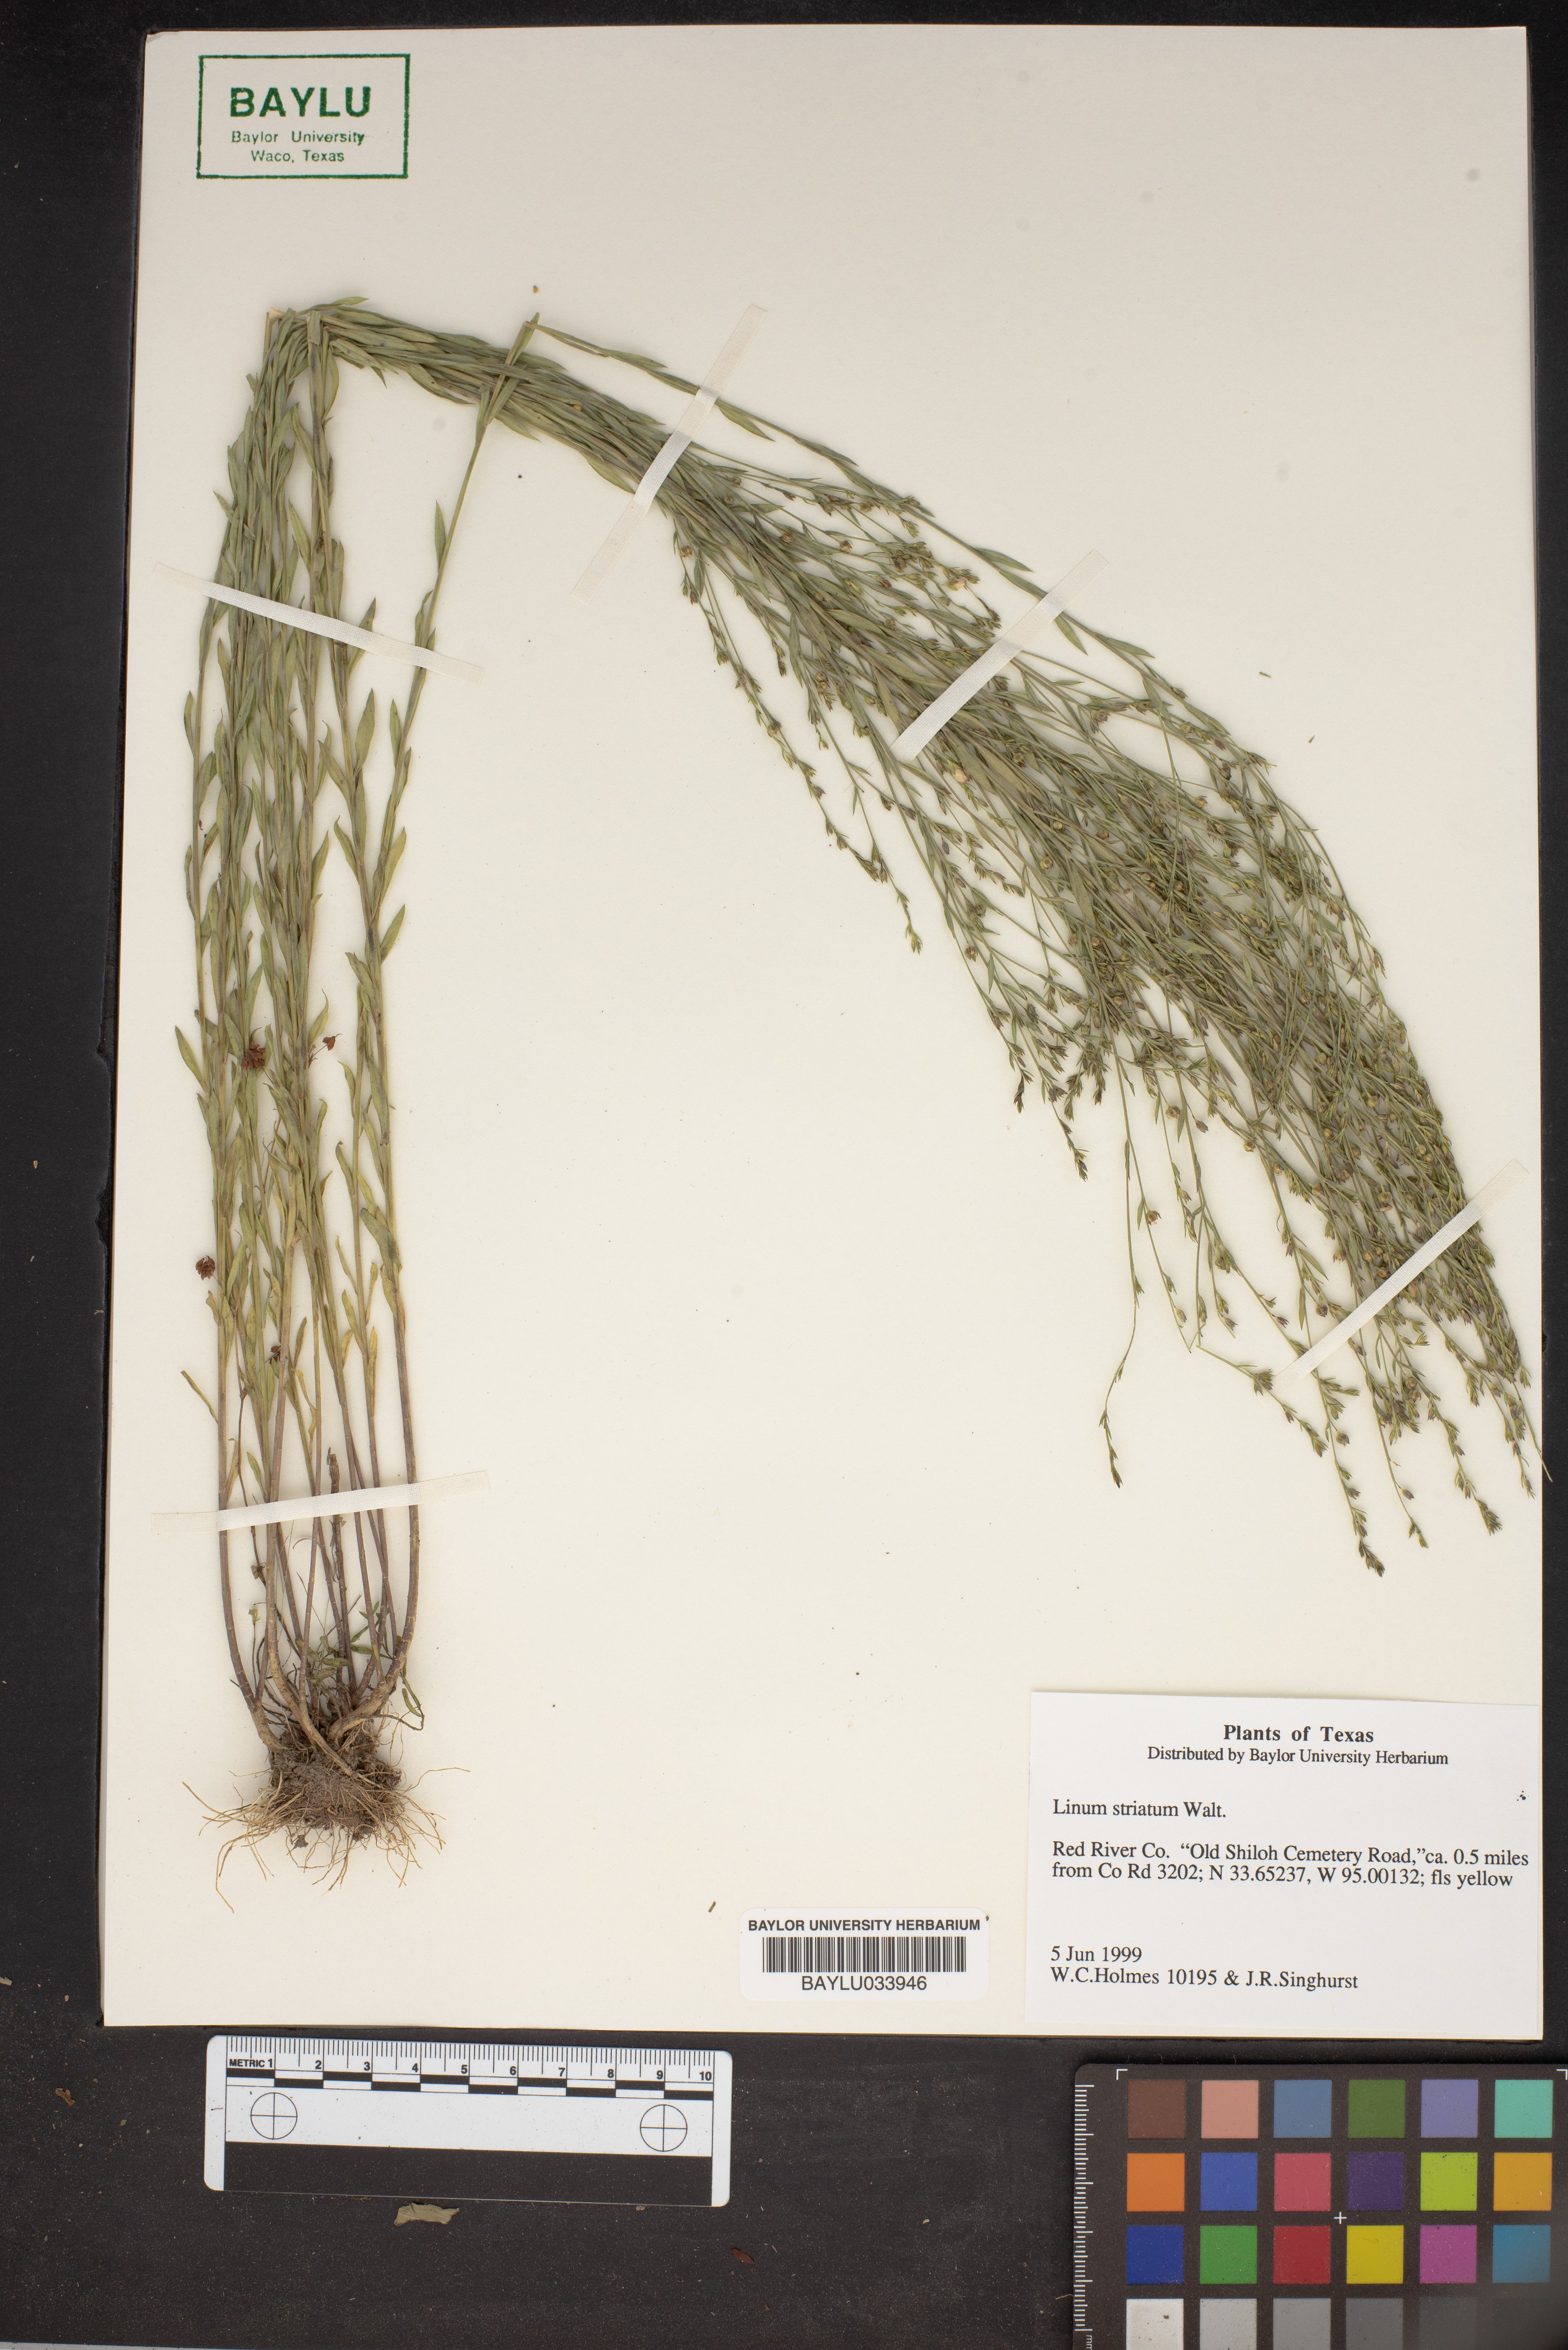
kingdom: Plantae
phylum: Tracheophyta
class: Magnoliopsida
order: Malpighiales
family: Linaceae
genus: Linum
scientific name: Linum striatum
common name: Ridged yellow flax
